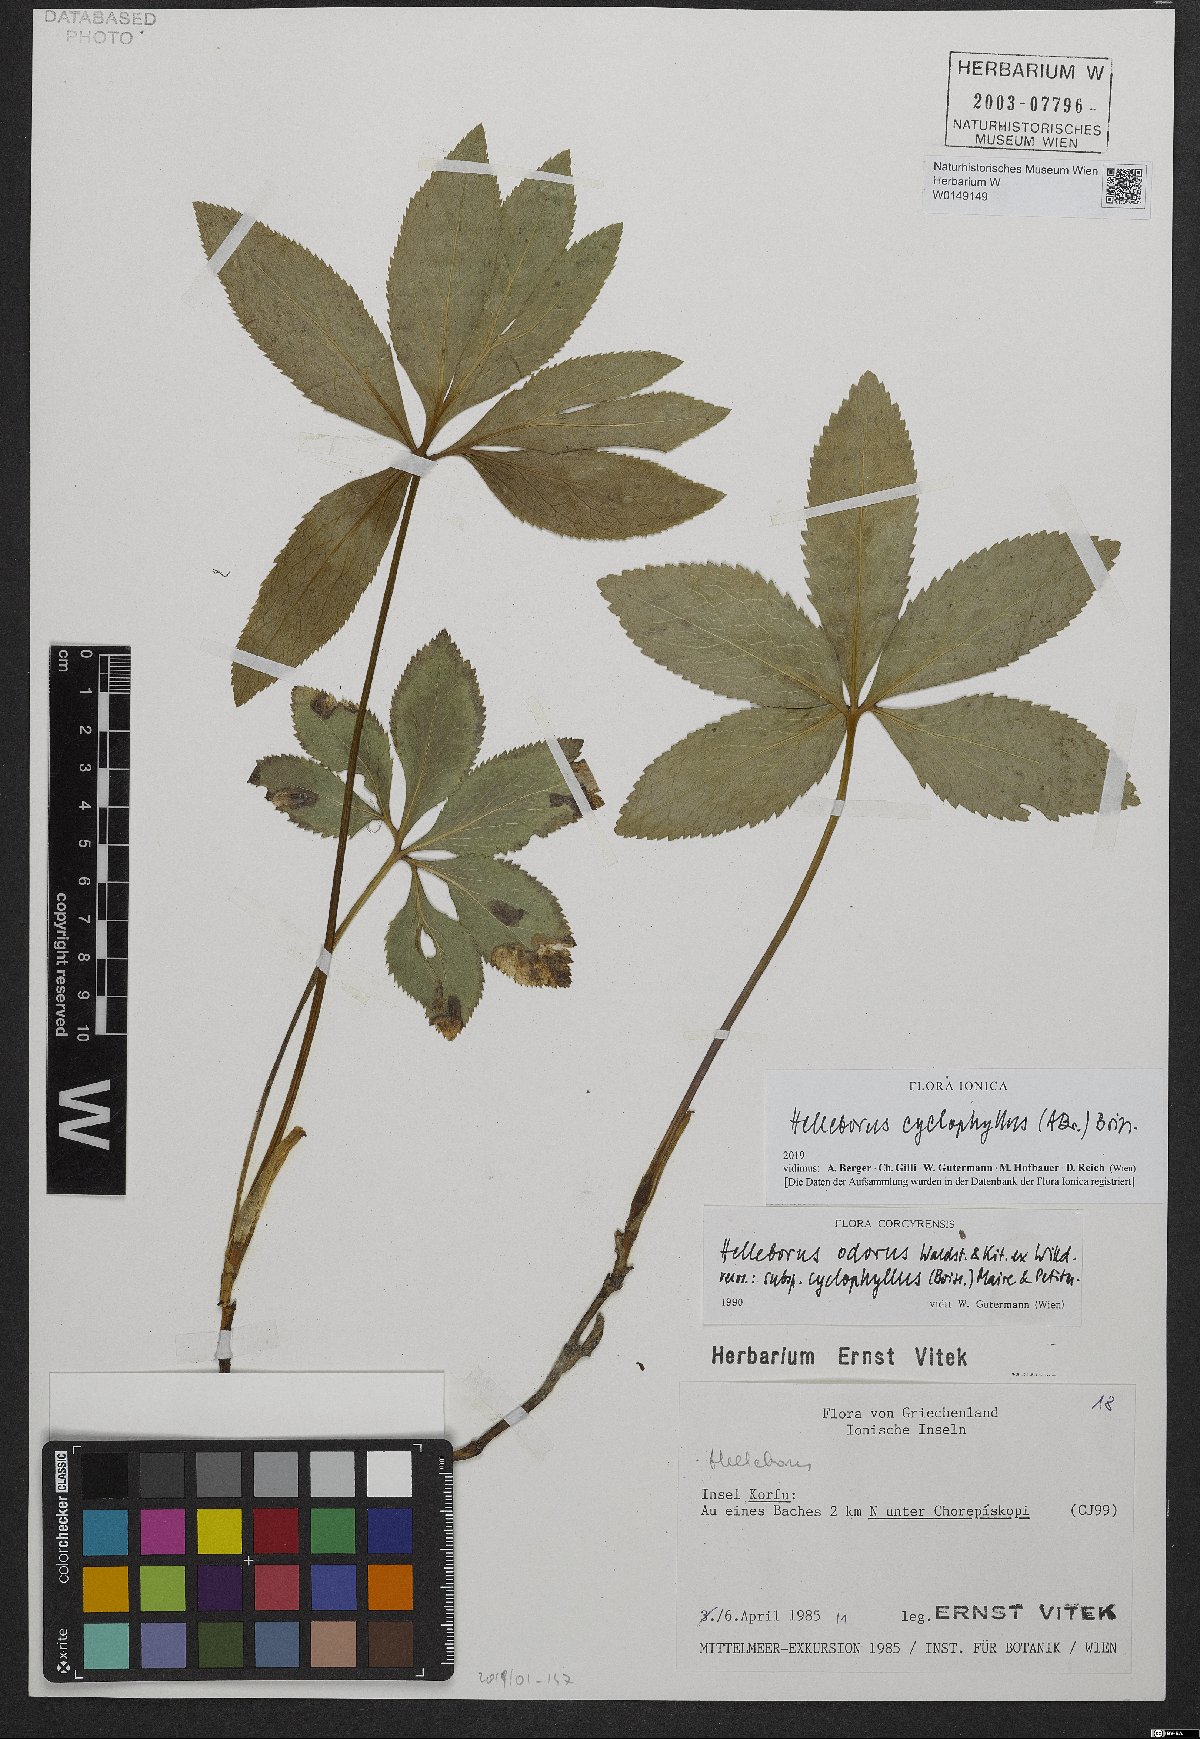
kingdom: Plantae
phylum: Tracheophyta
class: Magnoliopsida
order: Ranunculales
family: Ranunculaceae
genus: Helleborus
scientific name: Helleborus odorus
